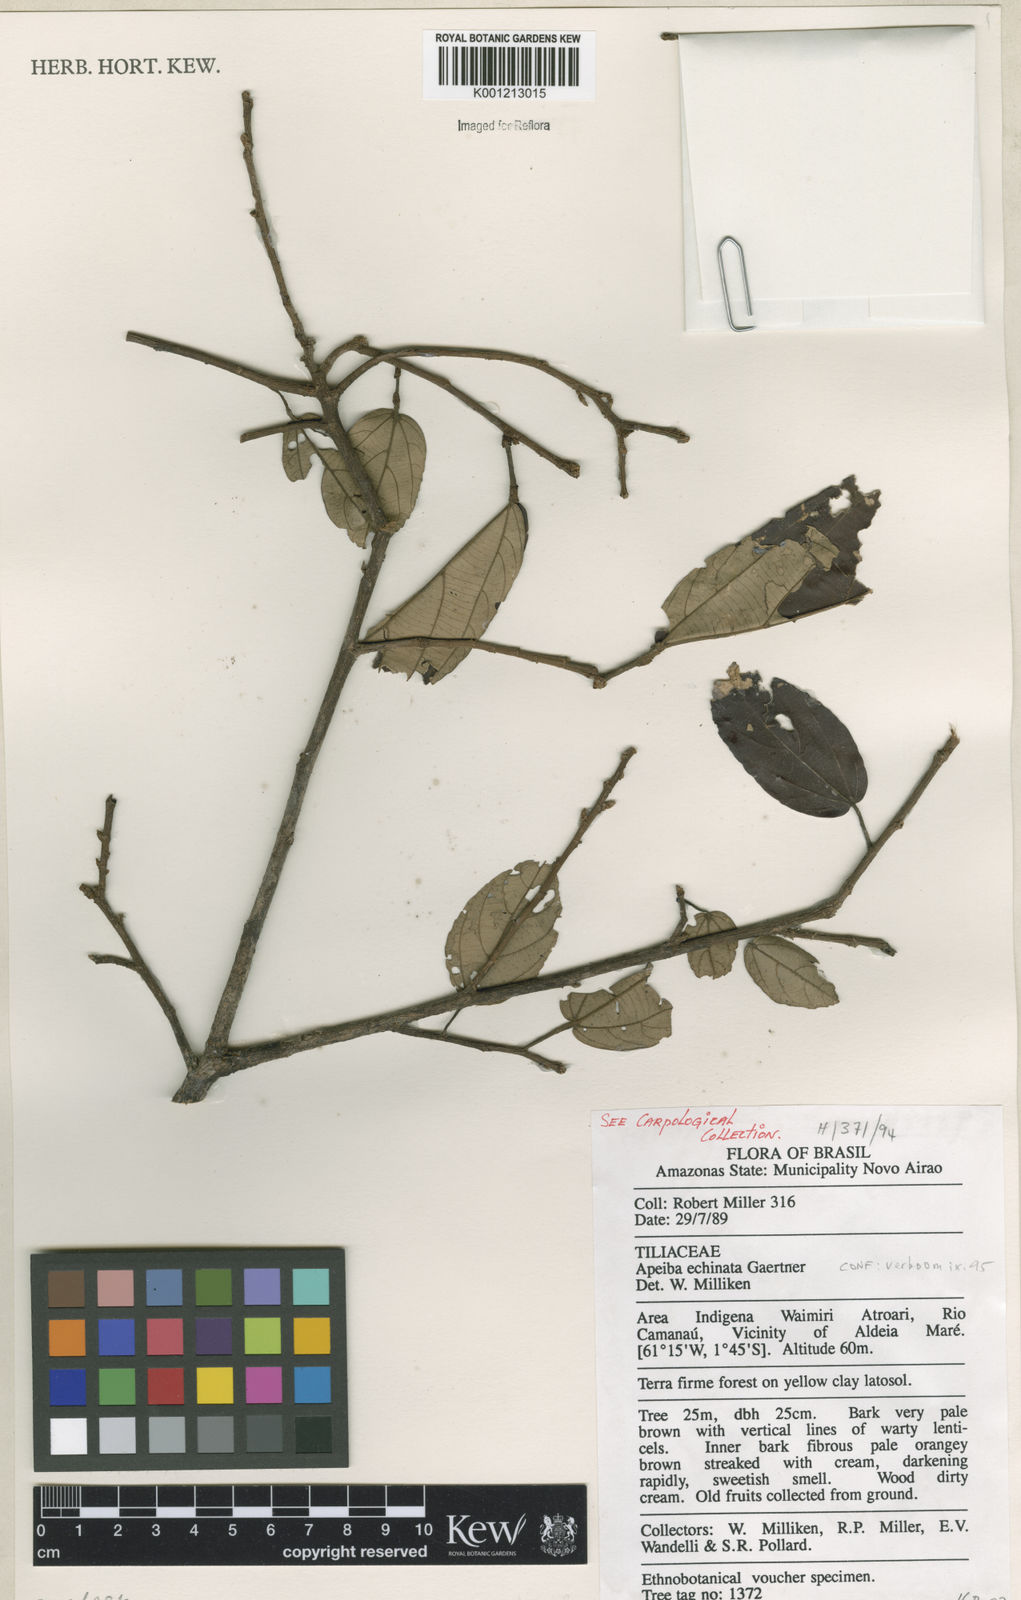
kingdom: Plantae
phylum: Tracheophyta
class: Magnoliopsida
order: Malvales
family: Malvaceae
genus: Apeiba
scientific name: Apeiba
